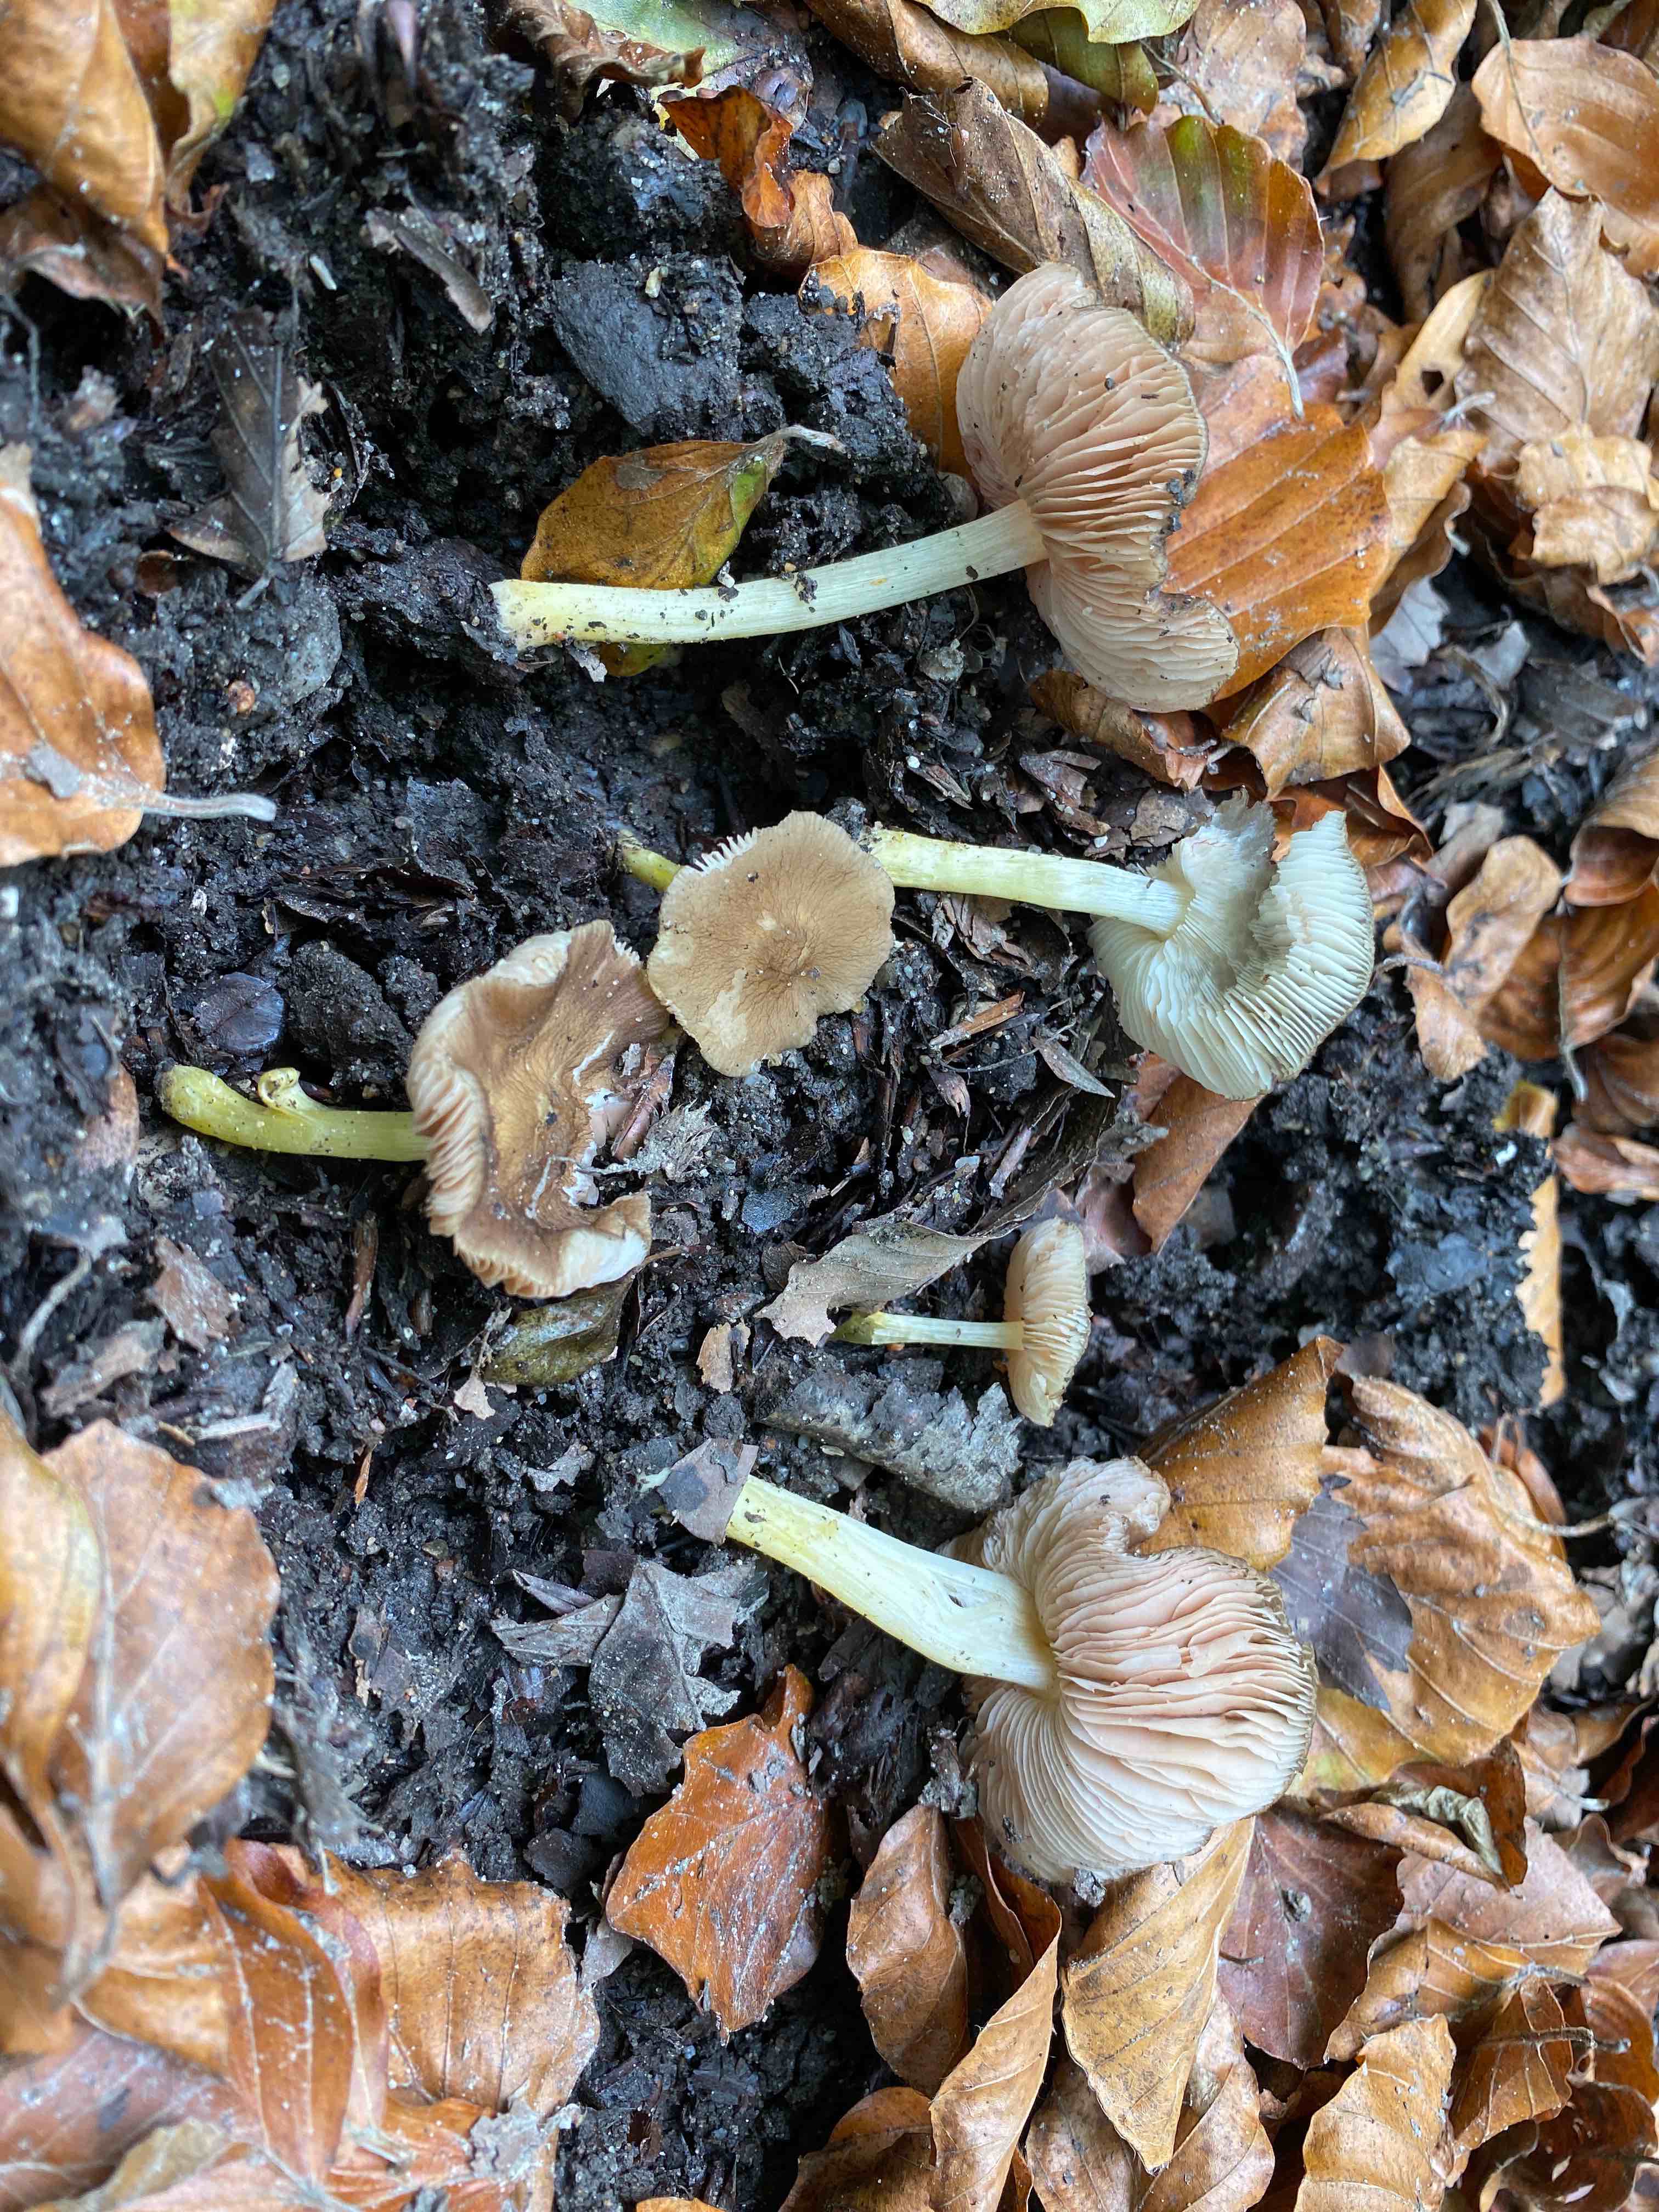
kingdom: Fungi
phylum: Basidiomycota
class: Agaricomycetes
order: Agaricales
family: Pluteaceae
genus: Pluteus
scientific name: Pluteus romellii
